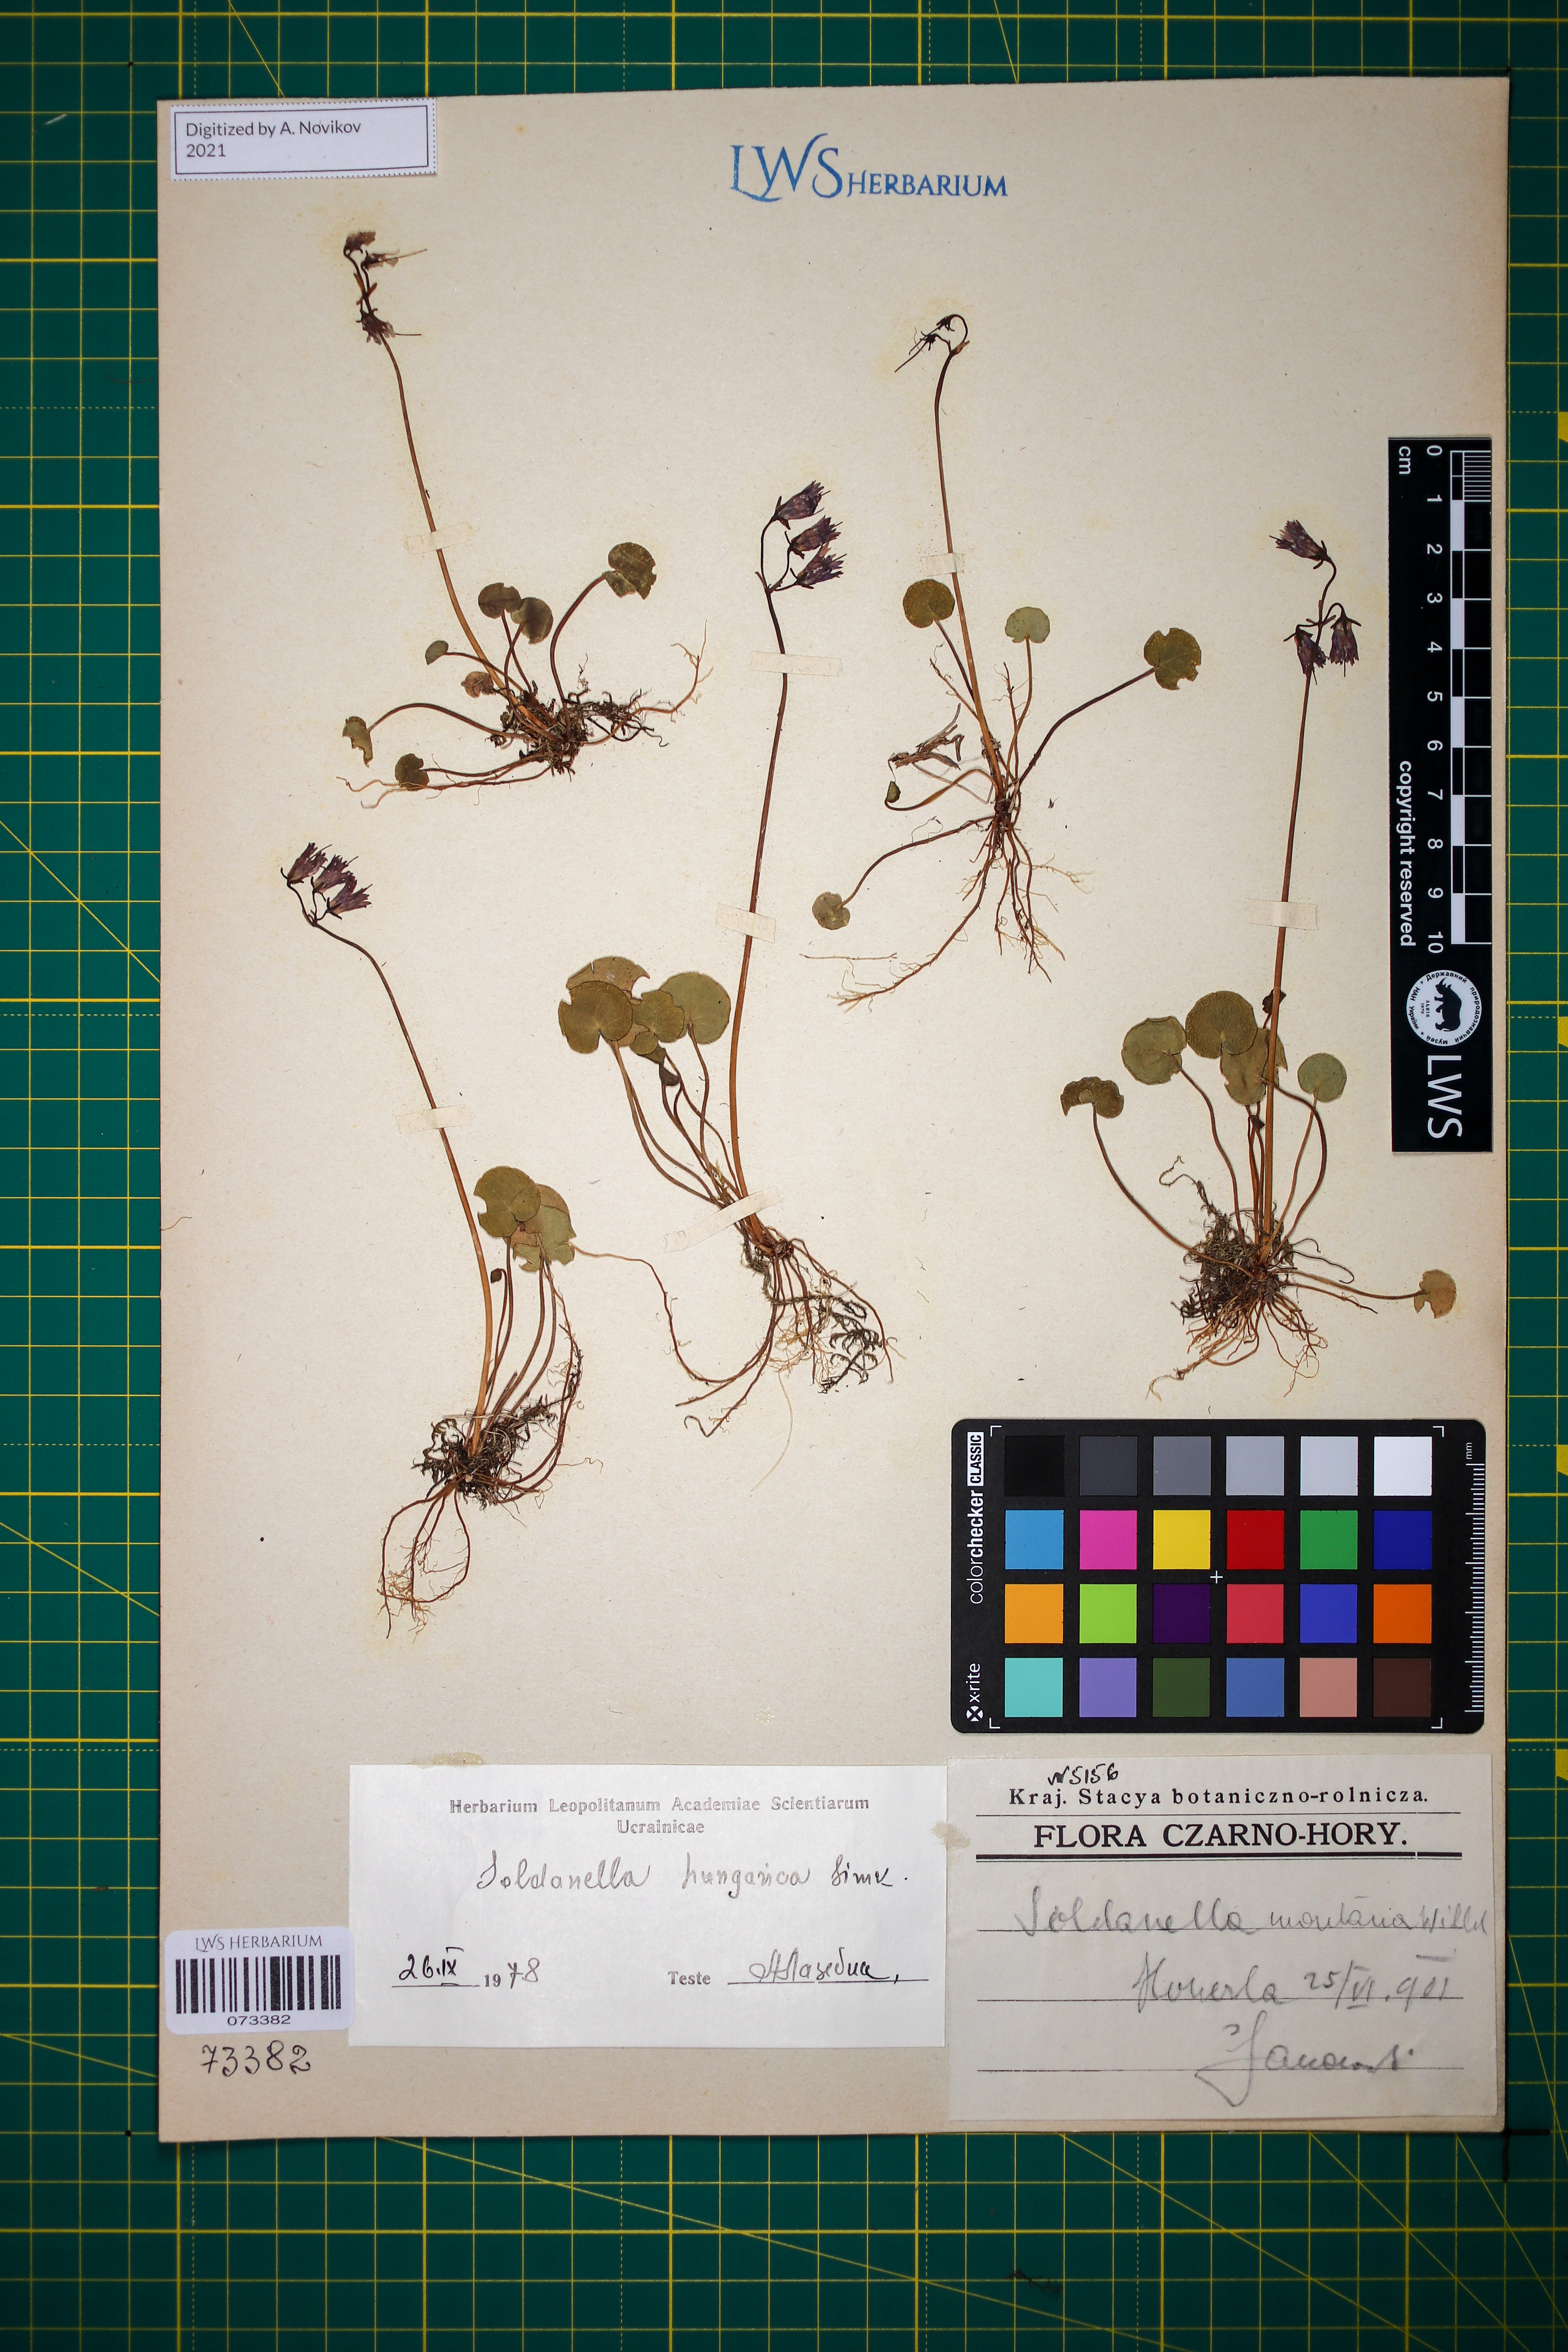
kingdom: Plantae
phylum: Tracheophyta
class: Magnoliopsida
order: Ericales
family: Primulaceae
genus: Soldanella
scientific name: Soldanella hungarica
